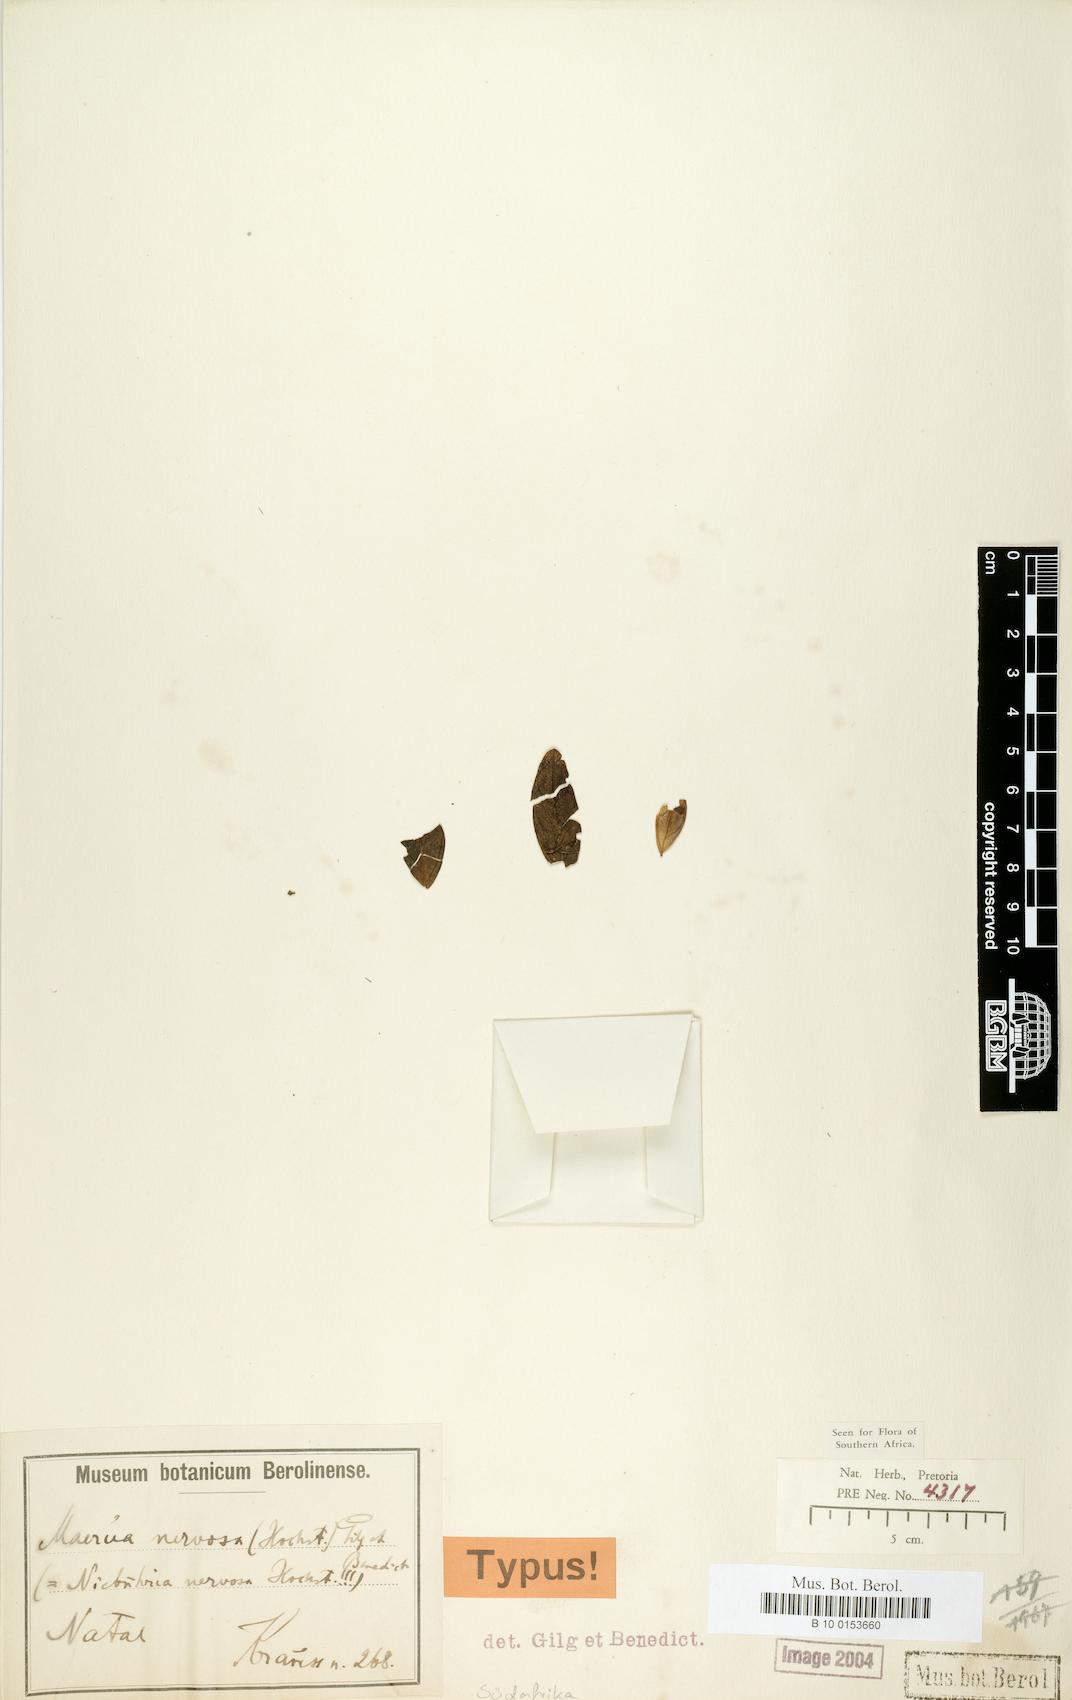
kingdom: Plantae
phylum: Tracheophyta
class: Magnoliopsida
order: Brassicales
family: Capparaceae
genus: Maerua
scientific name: Maerua nervosa
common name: Natal bush-cherry
